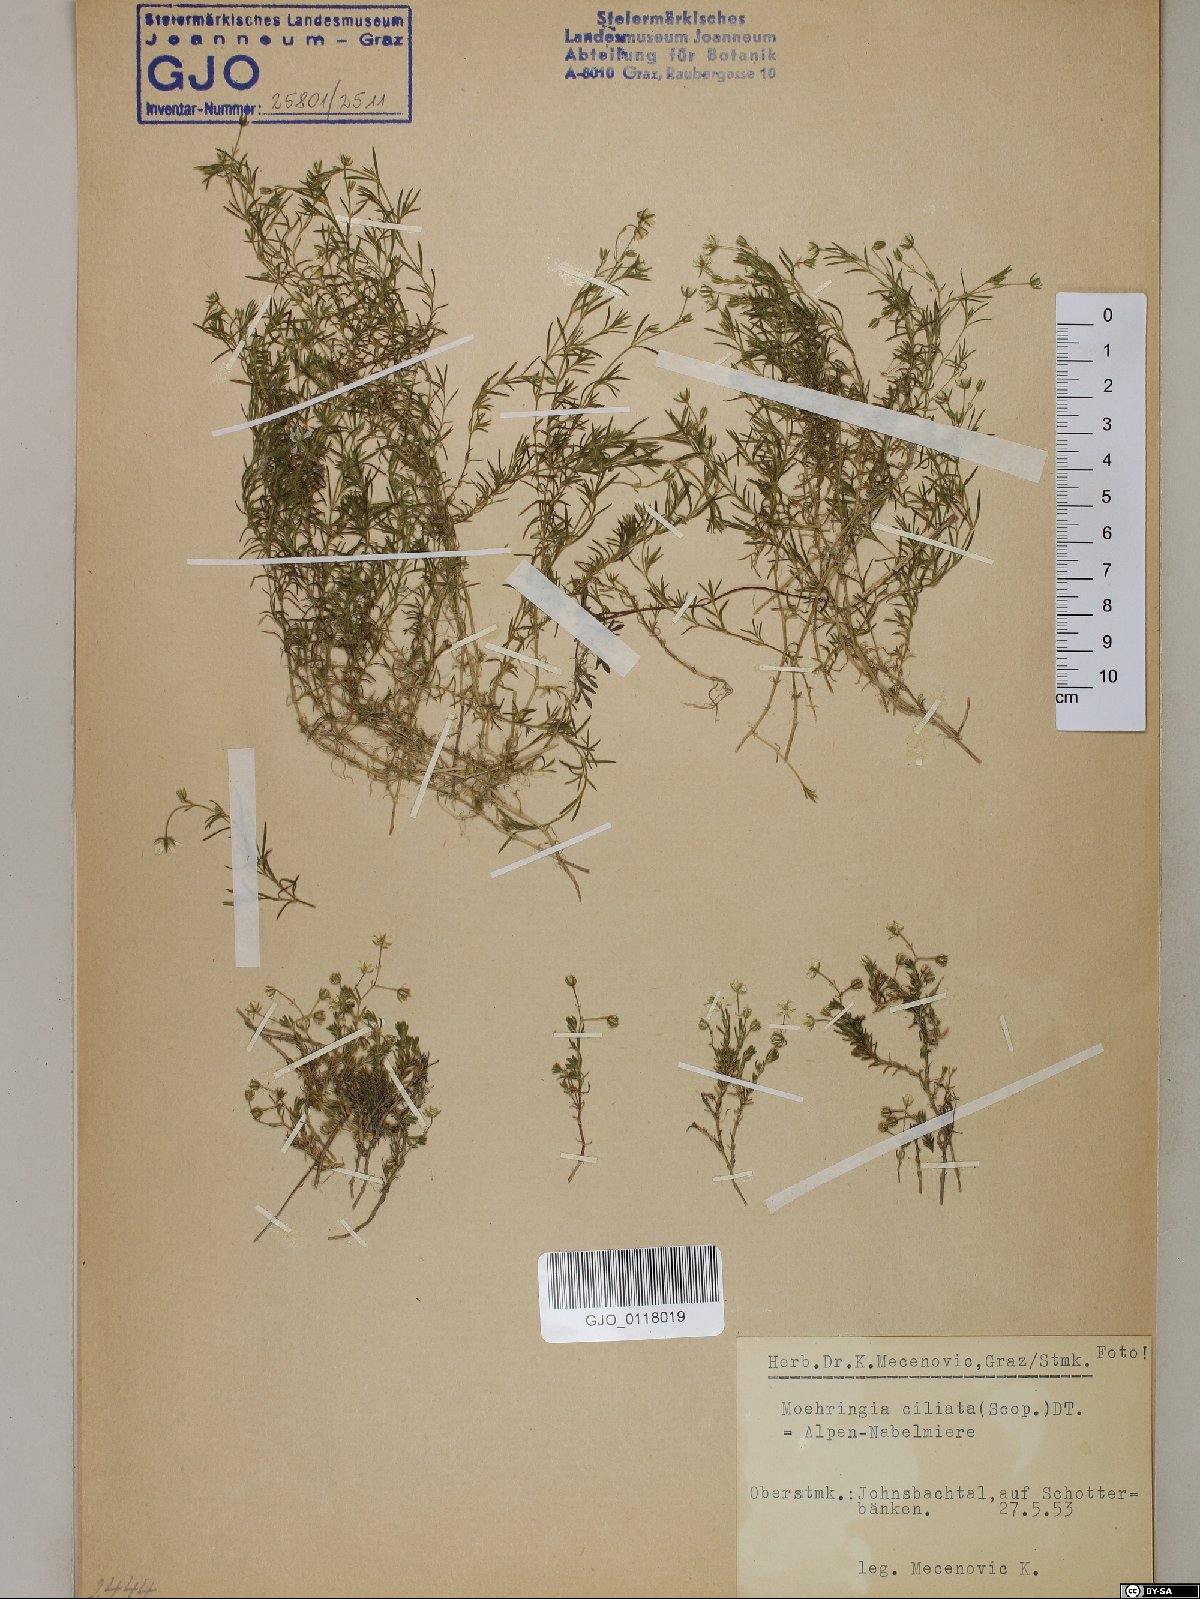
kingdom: Plantae
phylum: Tracheophyta
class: Magnoliopsida
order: Caryophyllales
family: Caryophyllaceae
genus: Moehringia
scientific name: Moehringia ciliata
